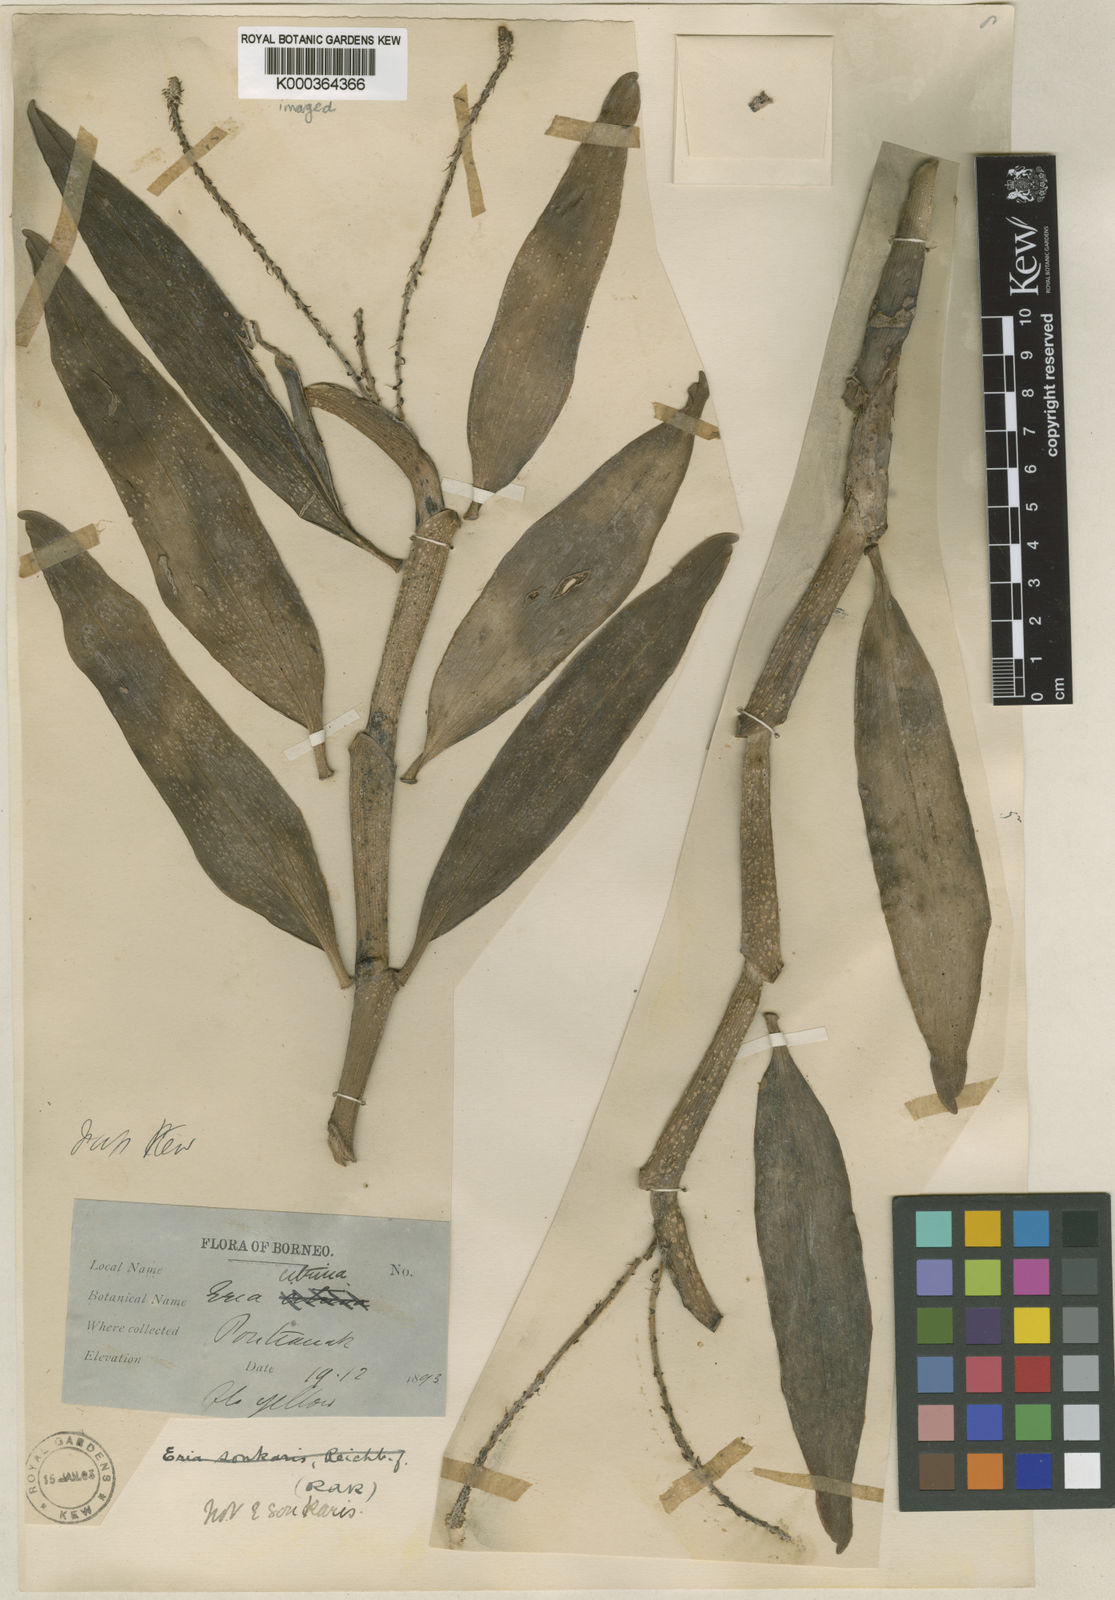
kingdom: Plantae
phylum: Tracheophyta
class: Liliopsida
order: Asparagales
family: Orchidaceae
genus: Mycaranthes
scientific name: Mycaranthes citrina
